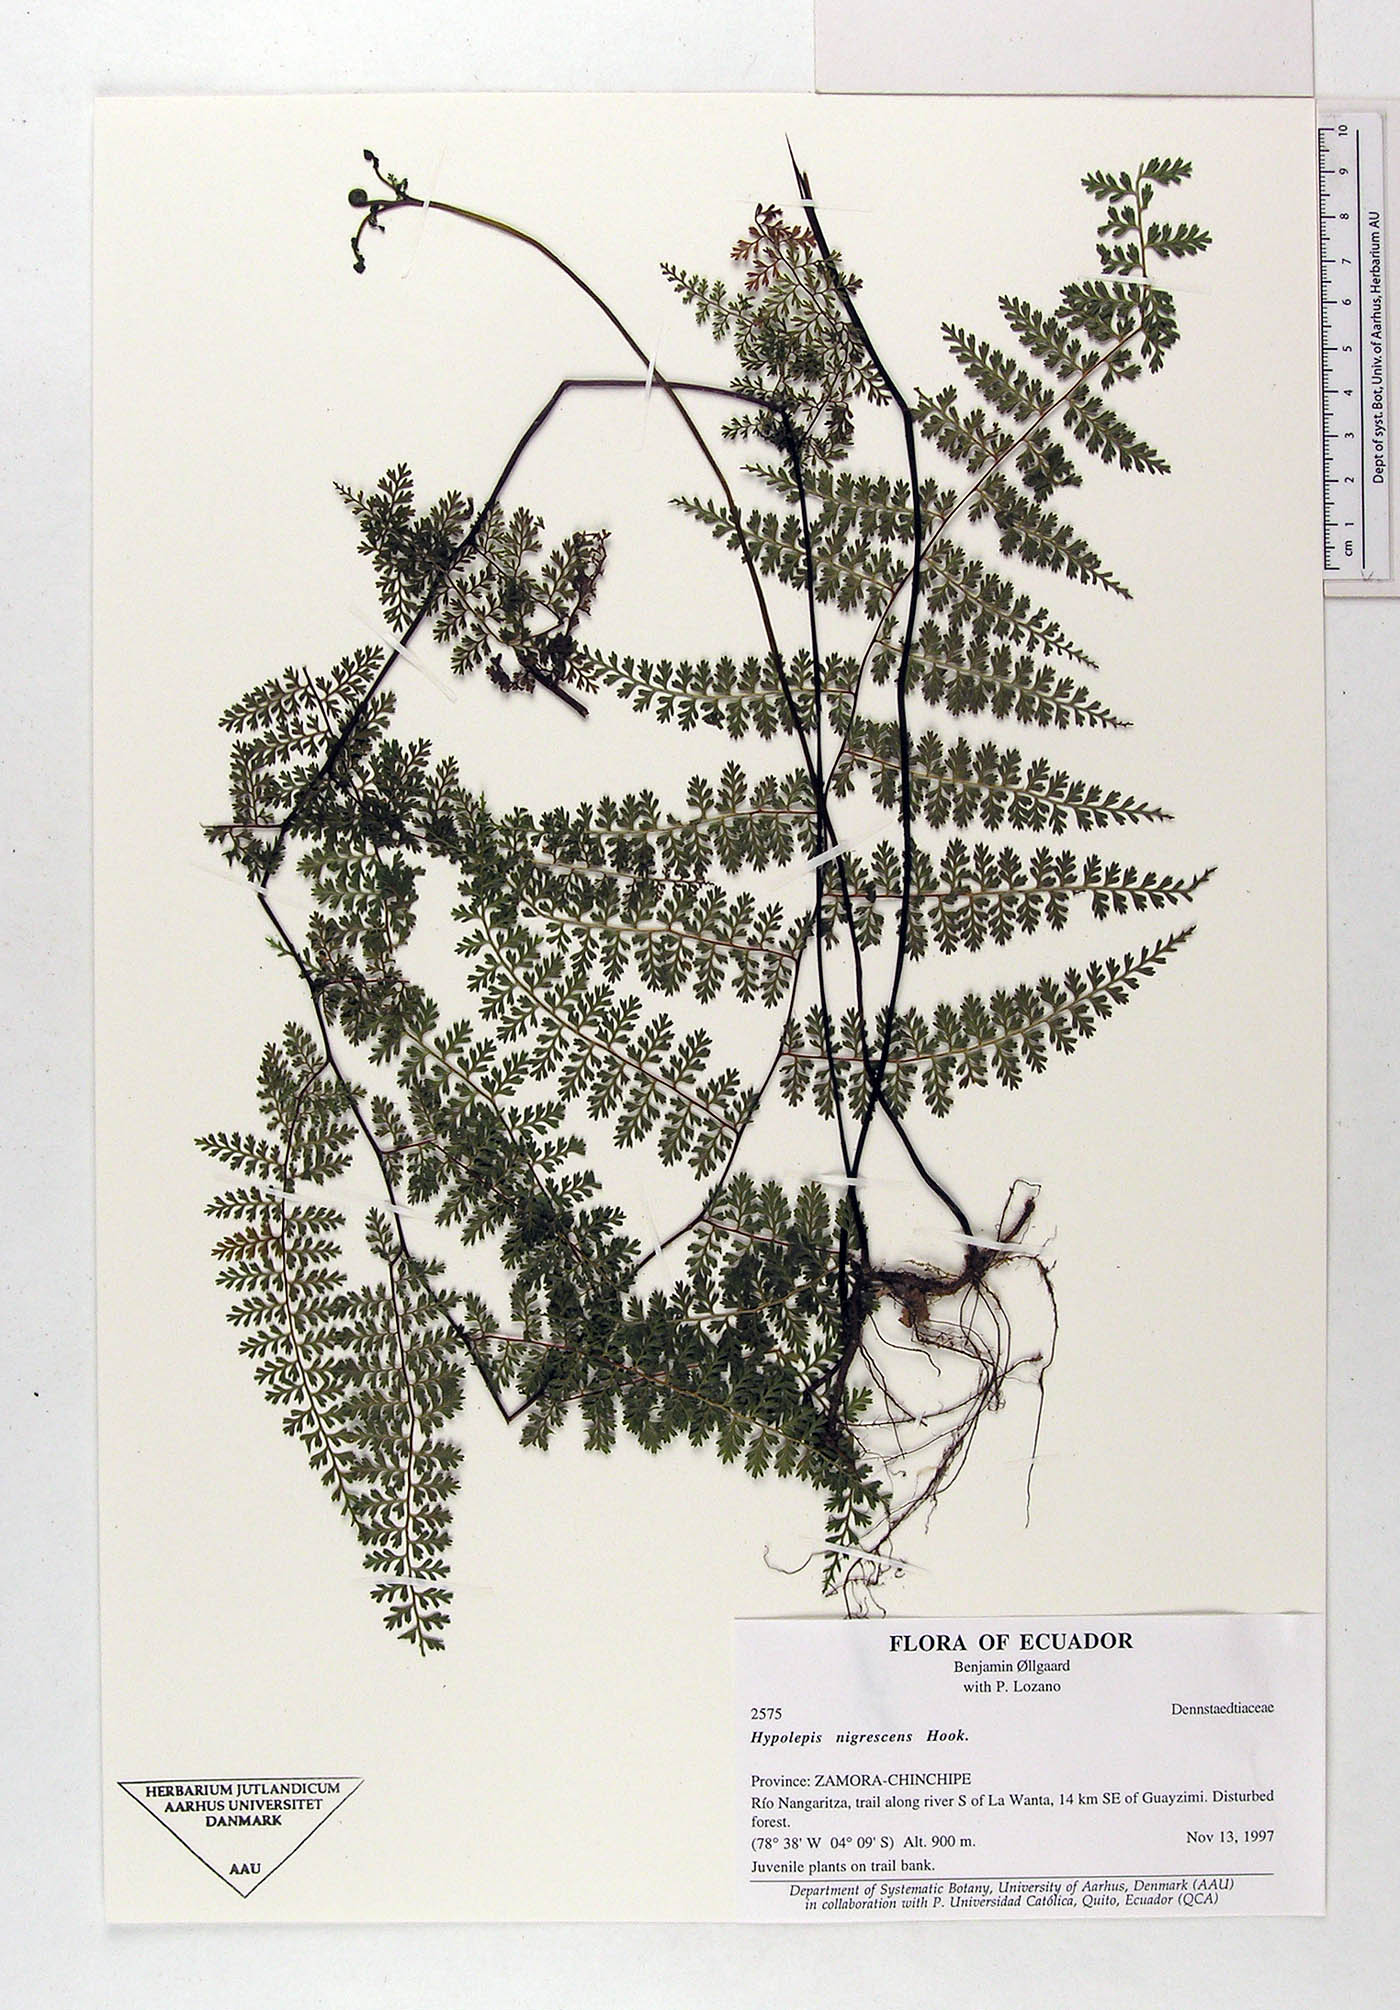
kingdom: Plantae
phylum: Tracheophyta
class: Polypodiopsida
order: Polypodiales
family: Dennstaedtiaceae
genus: Hiya
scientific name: Hiya nigrescens
